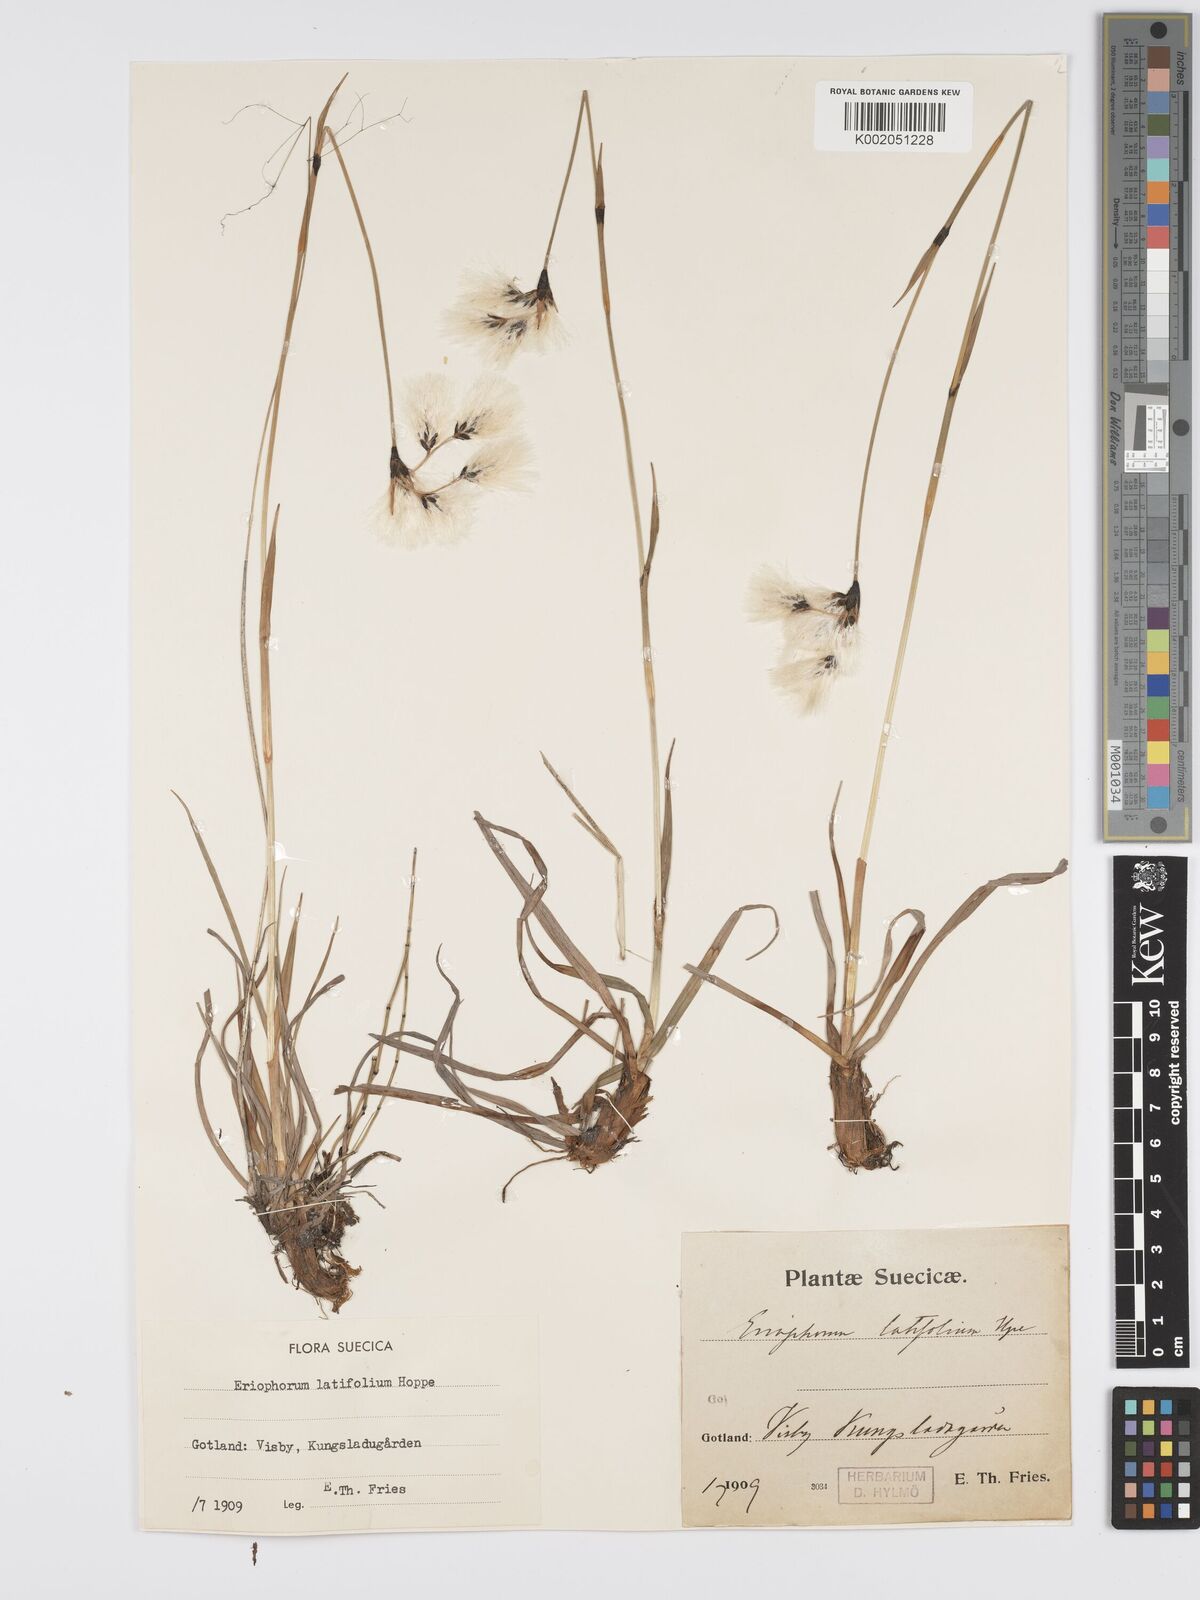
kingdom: Plantae
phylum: Tracheophyta
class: Liliopsida
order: Poales
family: Cyperaceae
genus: Eriophorum
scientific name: Eriophorum latifolium
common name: Broad-leaved cottongrass
